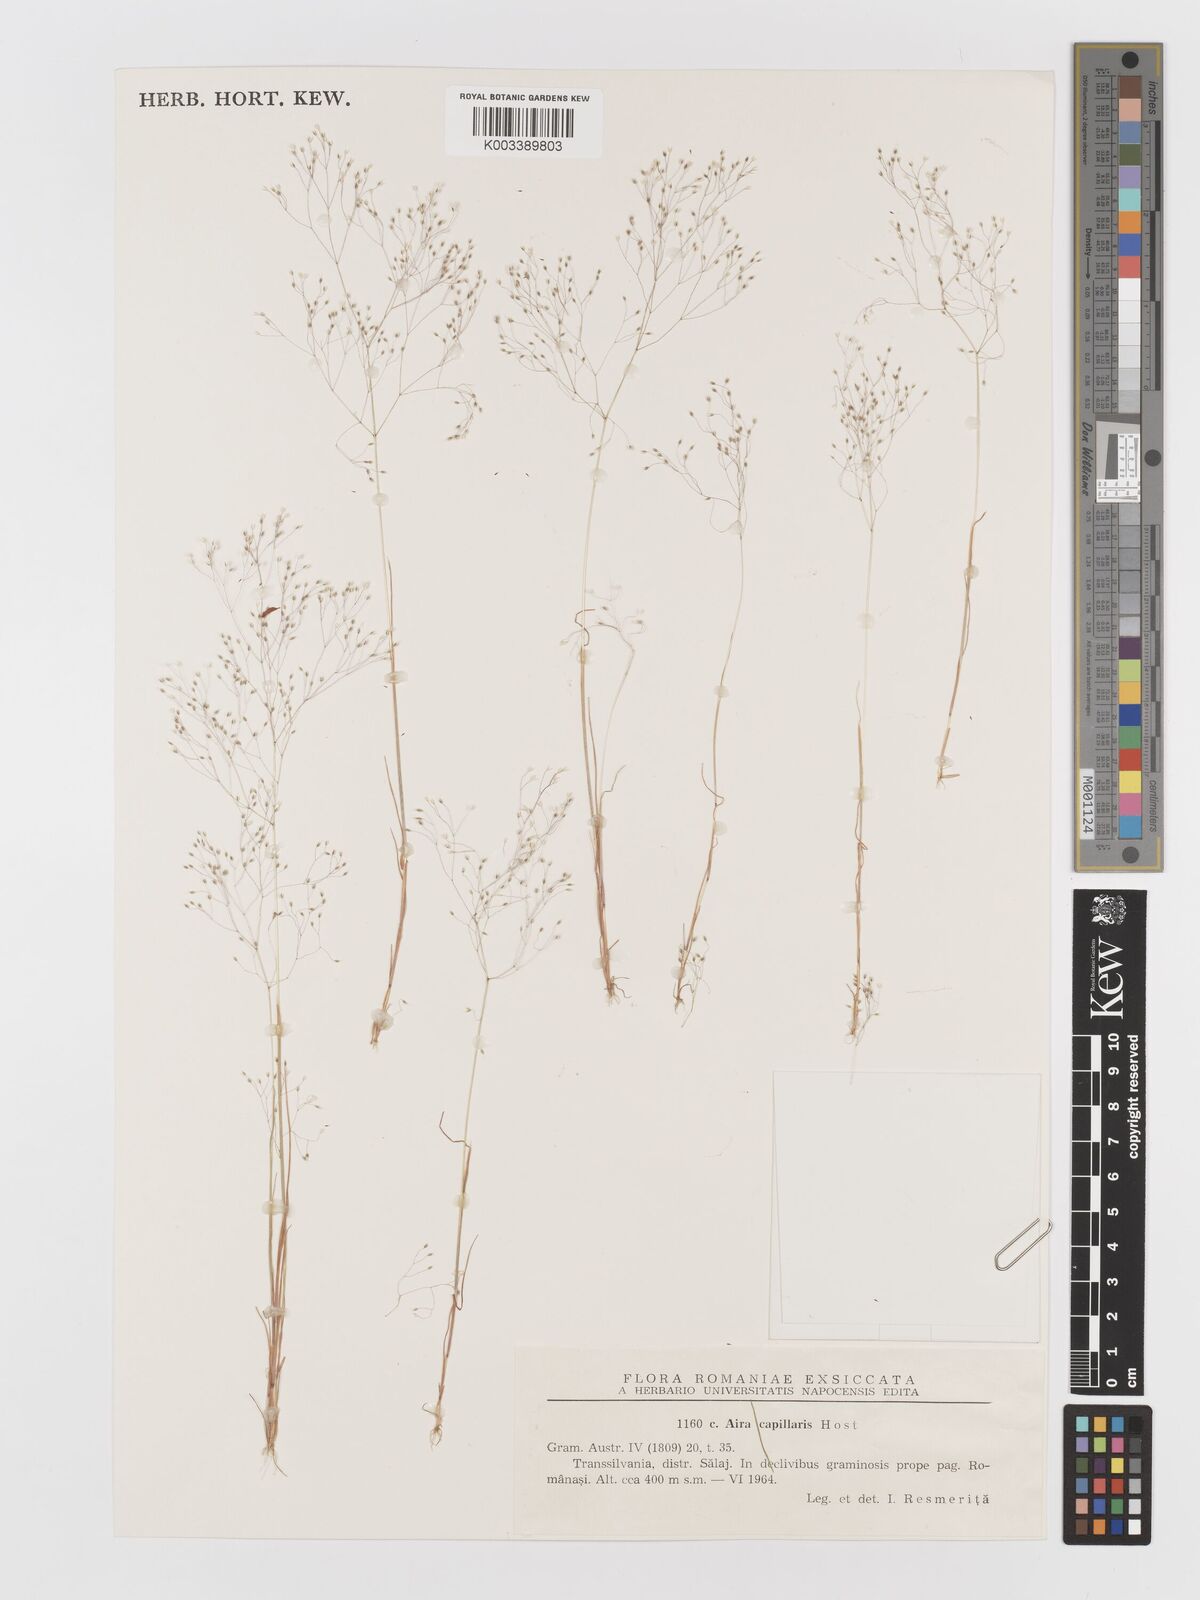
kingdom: Plantae
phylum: Tracheophyta
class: Liliopsida
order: Poales
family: Poaceae
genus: Aira
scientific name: Aira elegans
